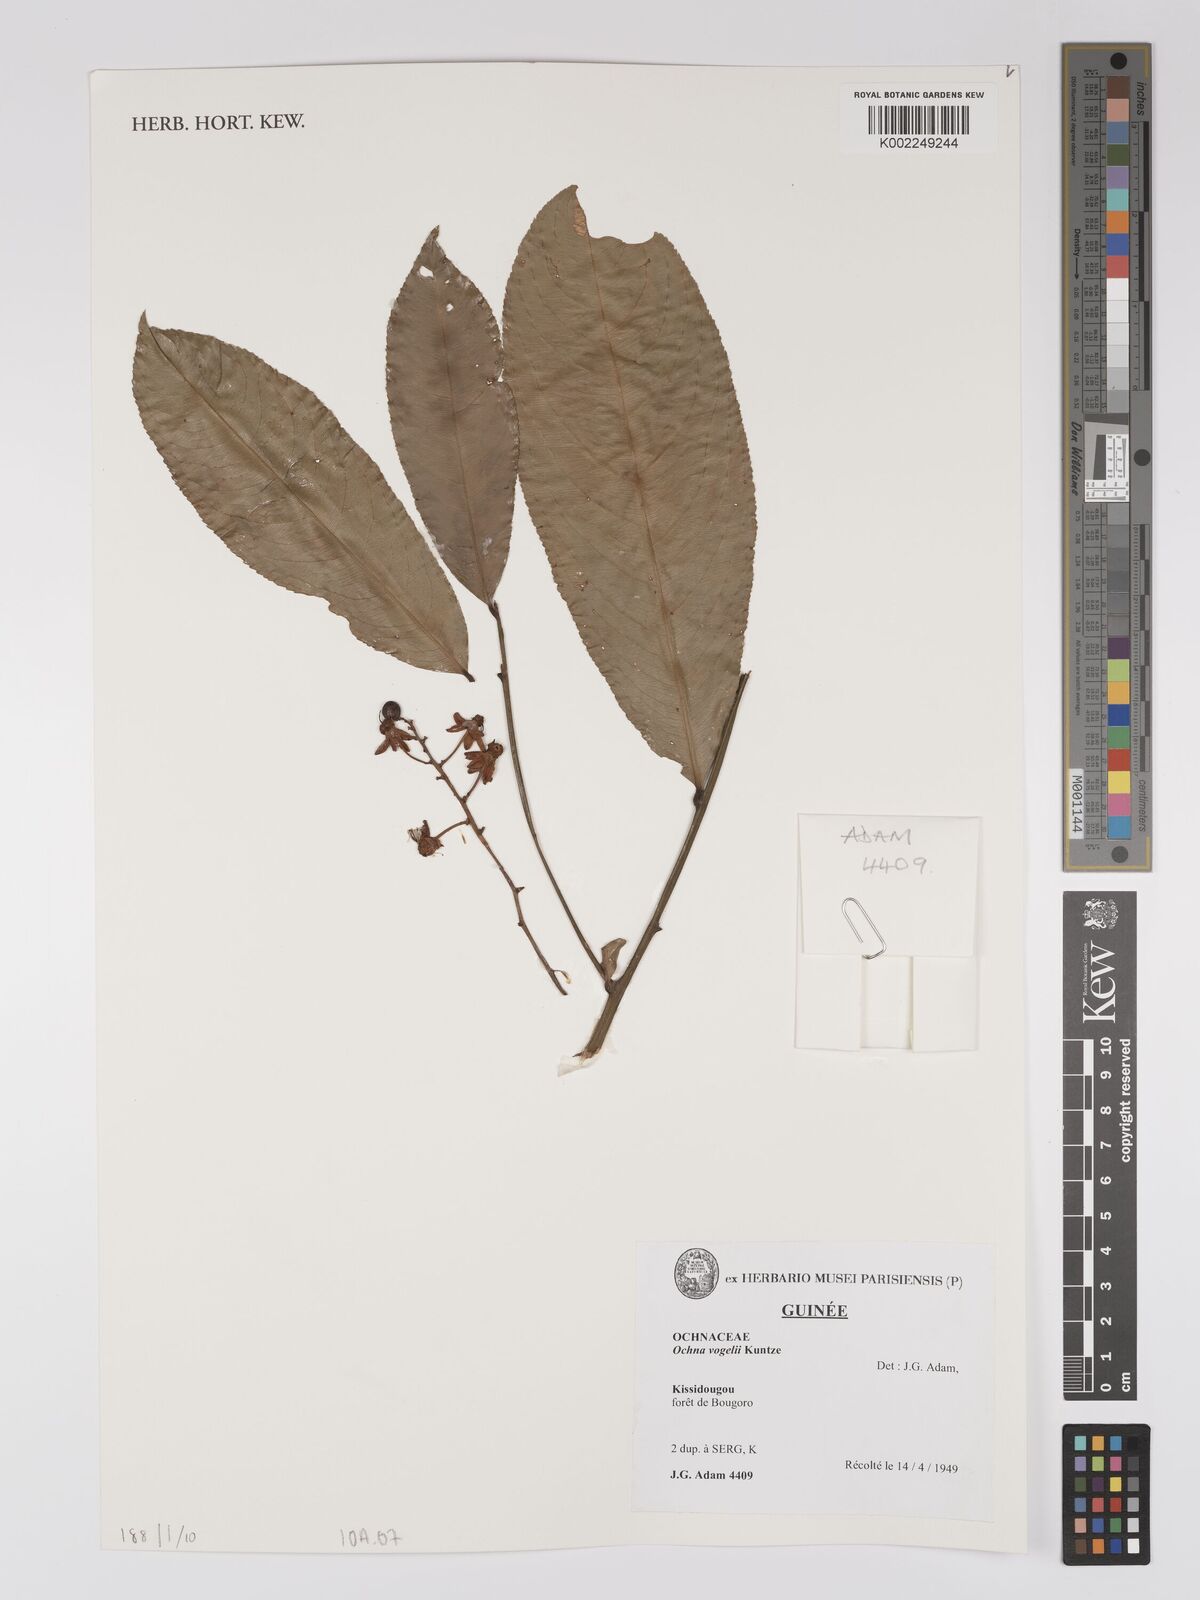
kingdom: Plantae
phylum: Tracheophyta
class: Magnoliopsida
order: Malpighiales
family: Ochnaceae
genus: Campylospermum
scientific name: Campylospermum vogelii
